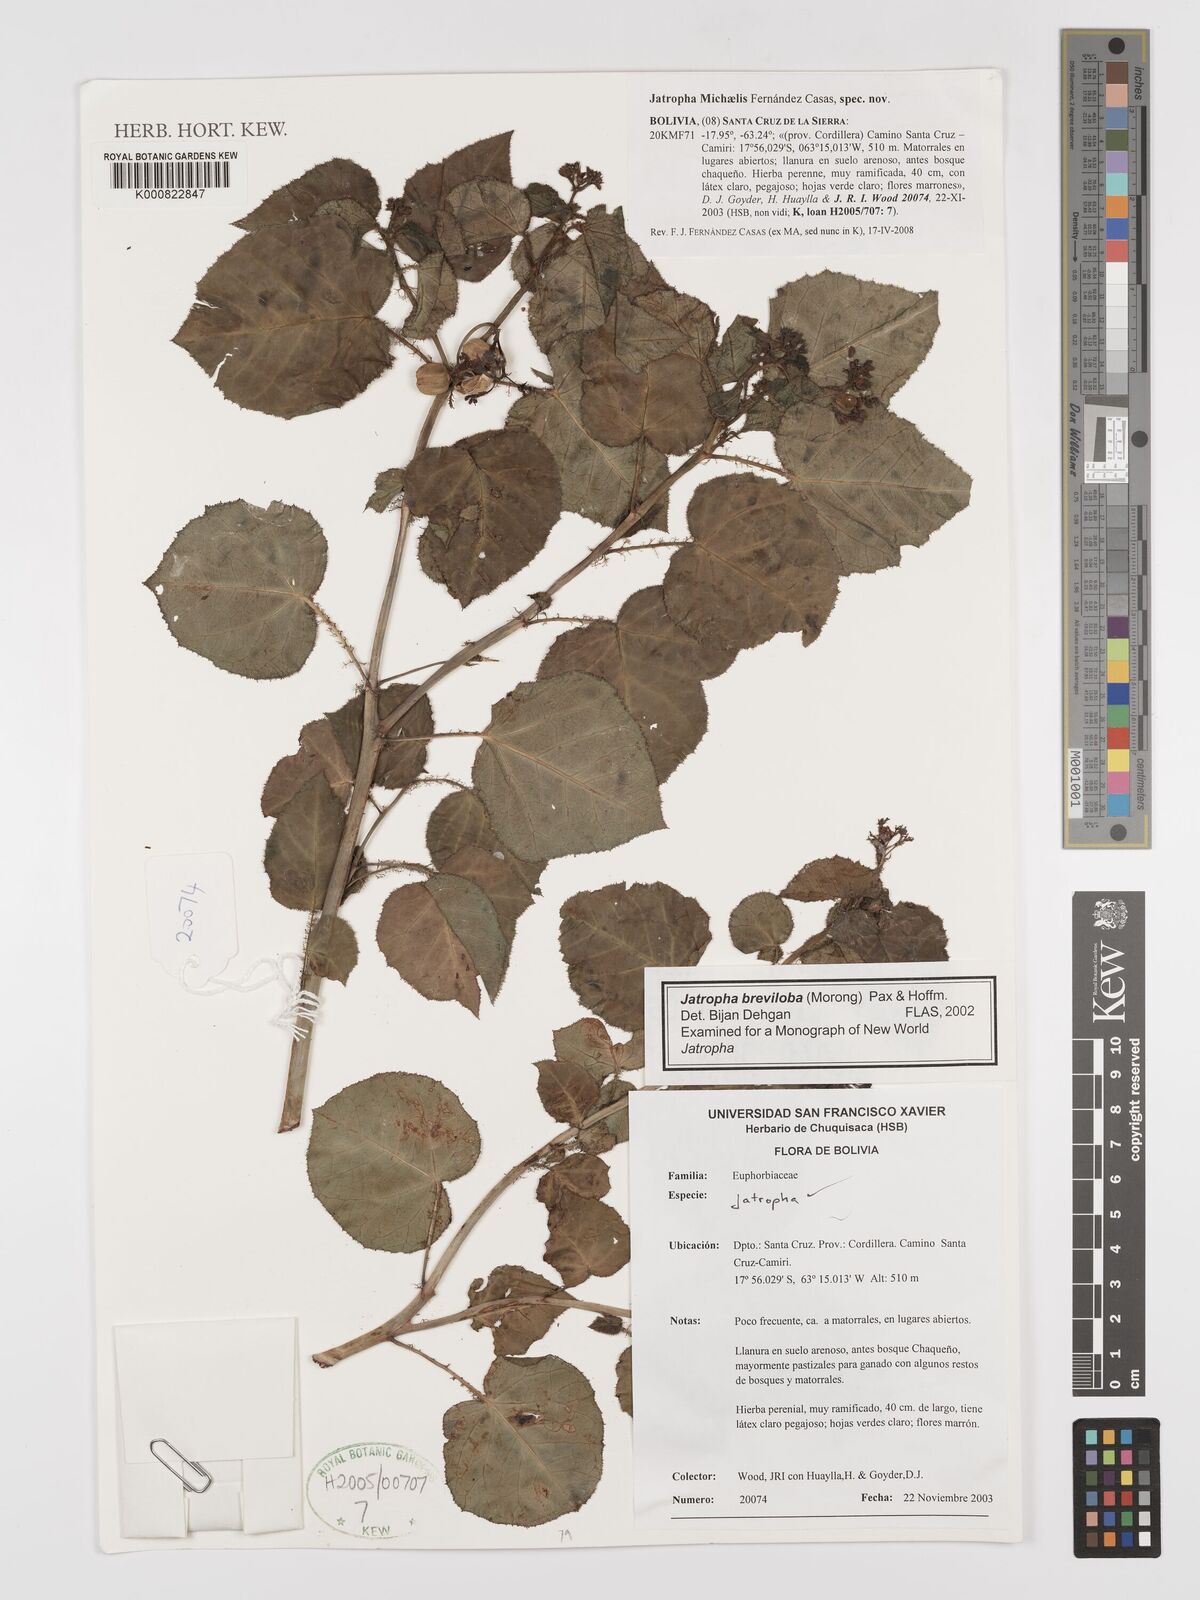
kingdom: Plantae
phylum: Tracheophyta
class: Magnoliopsida
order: Malpighiales
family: Euphorbiaceae
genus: Jatropha
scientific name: Jatropha
